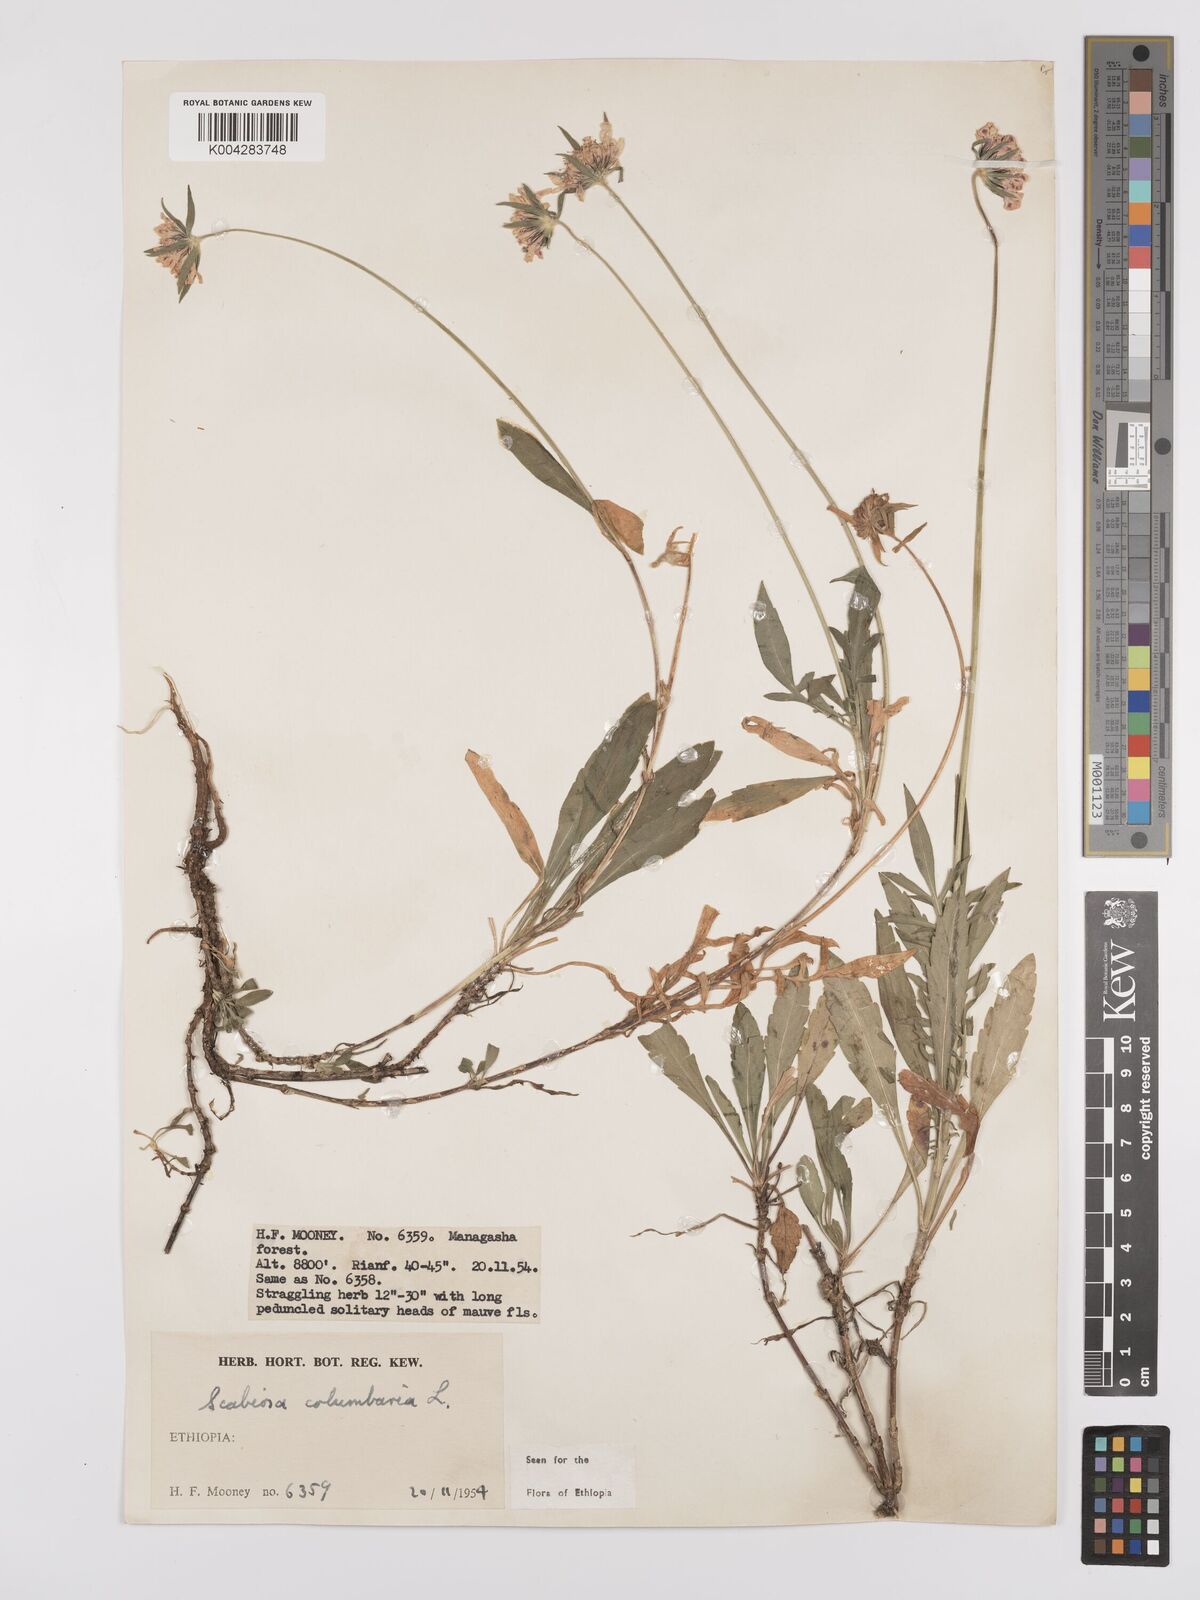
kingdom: Plantae
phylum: Tracheophyta
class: Magnoliopsida
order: Dipsacales
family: Caprifoliaceae
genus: Scabiosa
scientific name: Scabiosa columbaria
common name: Small scabious
